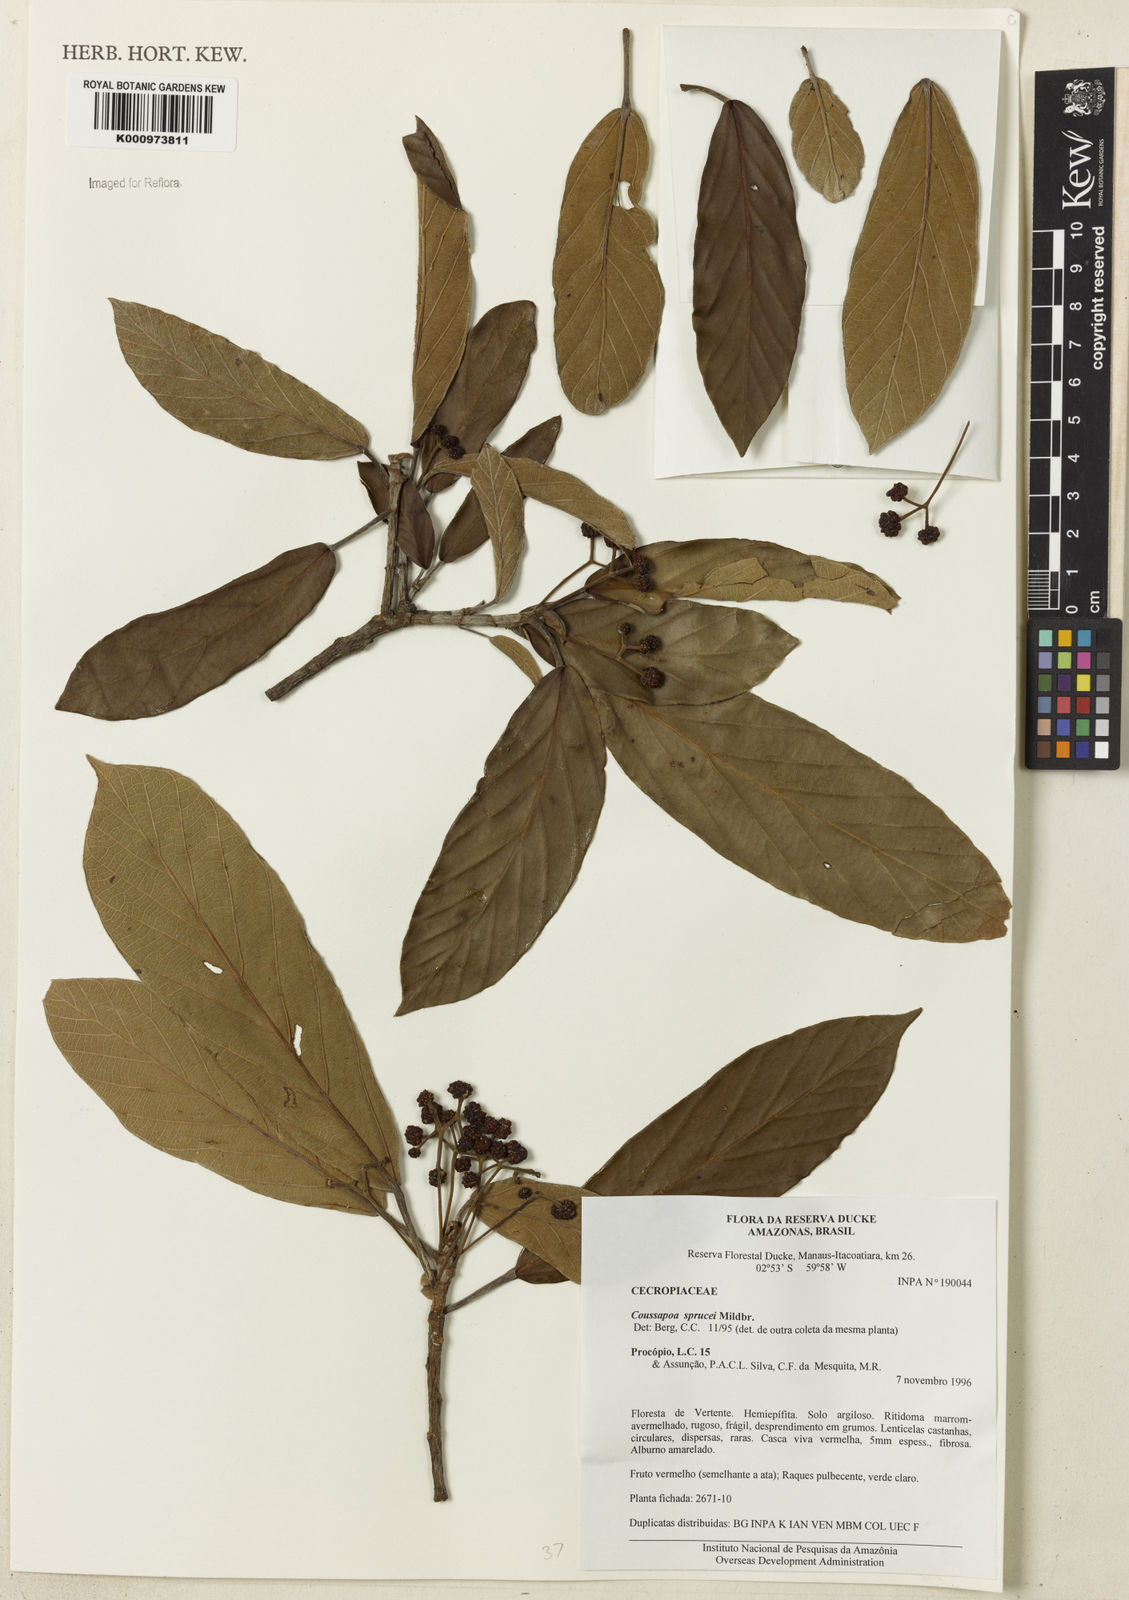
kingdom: Plantae
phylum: Tracheophyta
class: Magnoliopsida
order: Rosales
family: Urticaceae
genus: Coussapoa
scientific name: Coussapoa sprucei
